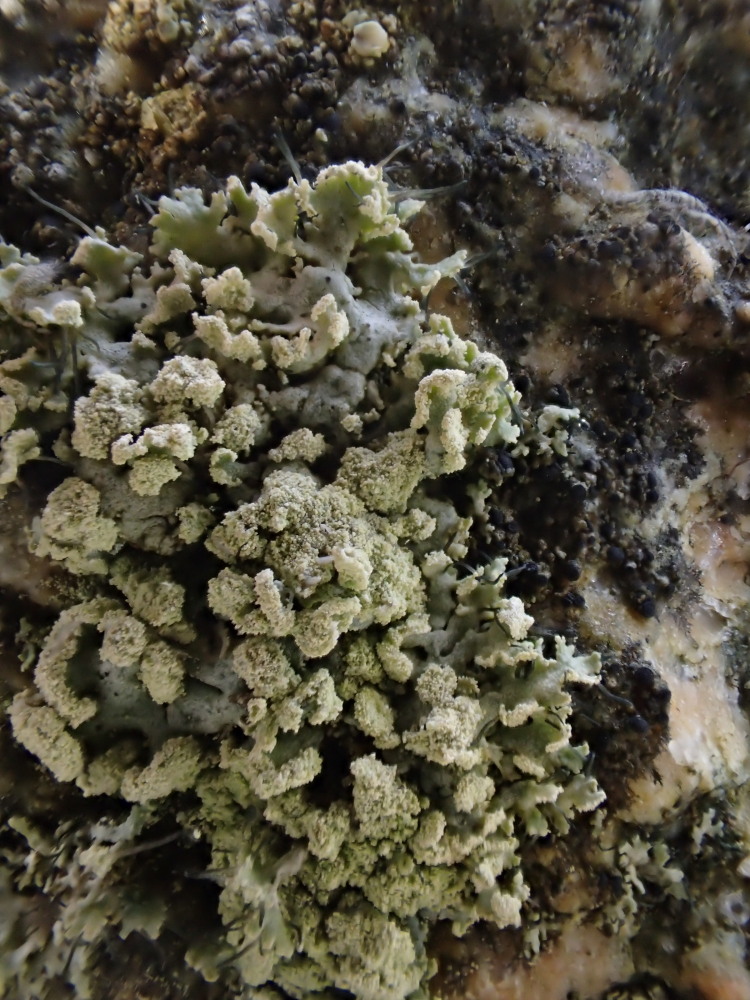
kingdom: Fungi
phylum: Ascomycota
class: Lecanoromycetes
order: Caliciales
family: Physciaceae
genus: Physcia
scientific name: Physcia tenella
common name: spæd rosetlav
